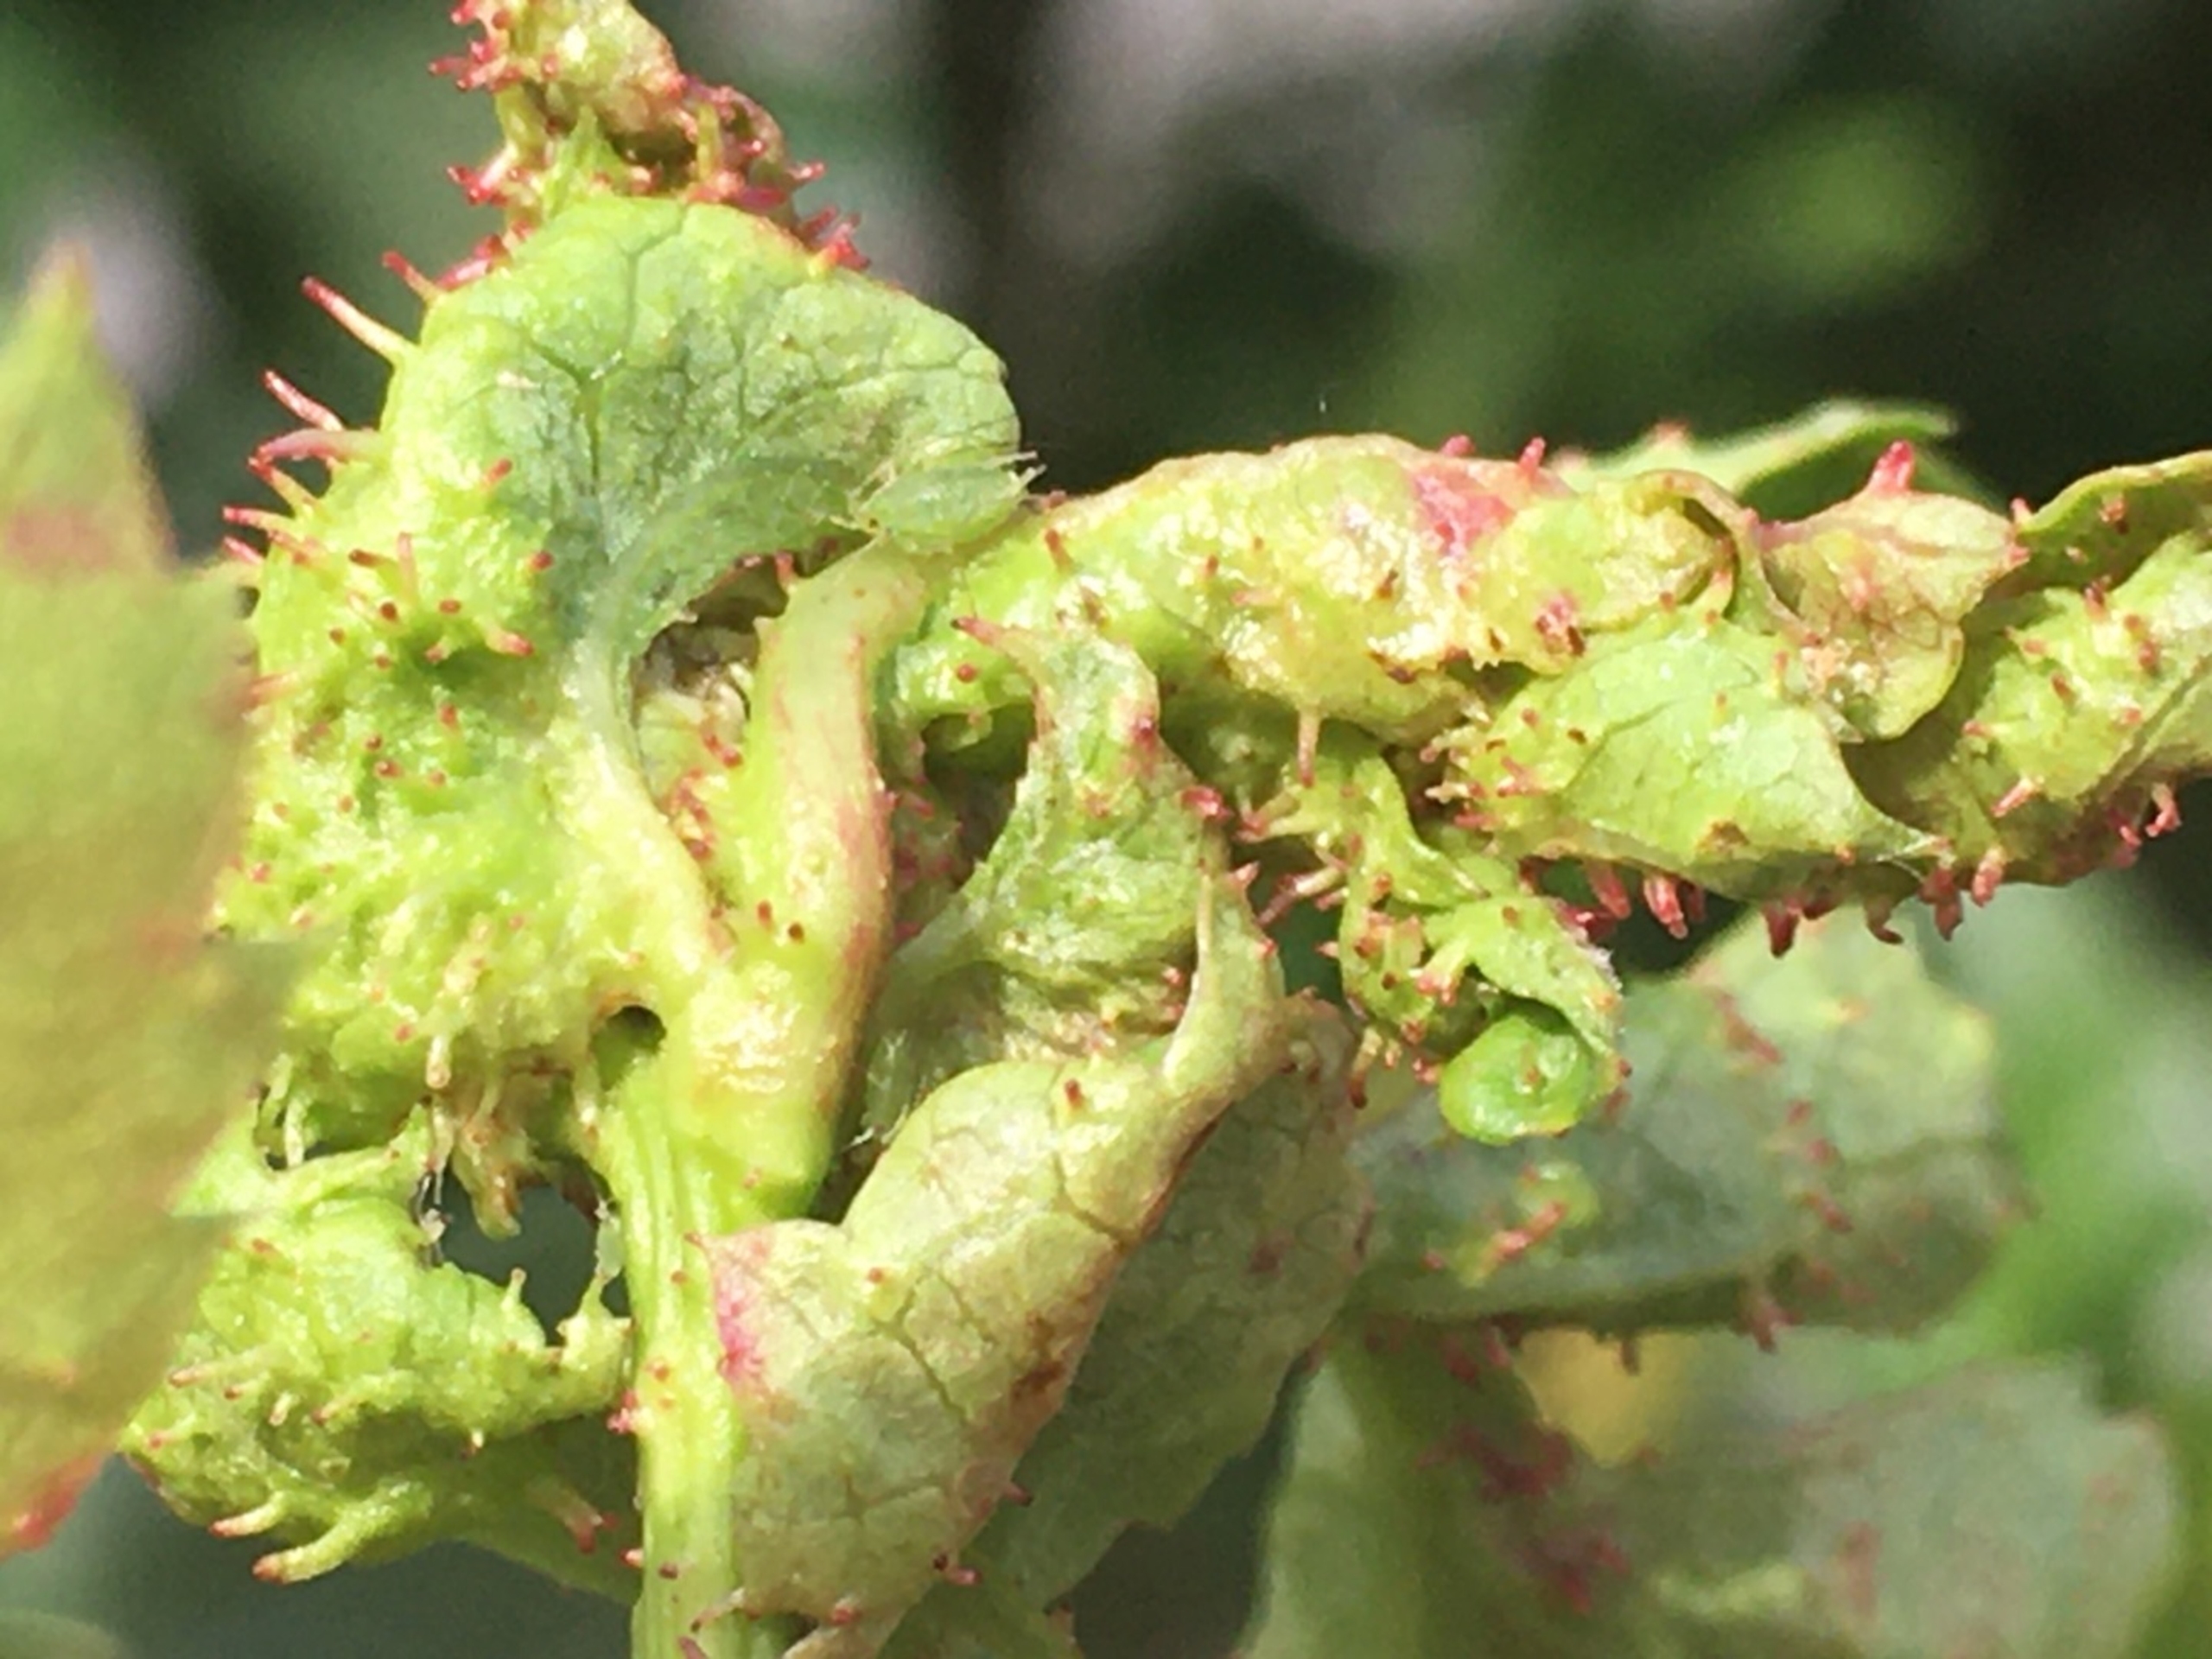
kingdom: Animalia
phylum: Arthropoda
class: Insecta
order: Diptera
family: Cecidomyiidae
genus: Dasineura
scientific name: Dasineura crataegi
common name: Tjørnerosetgalmyg
